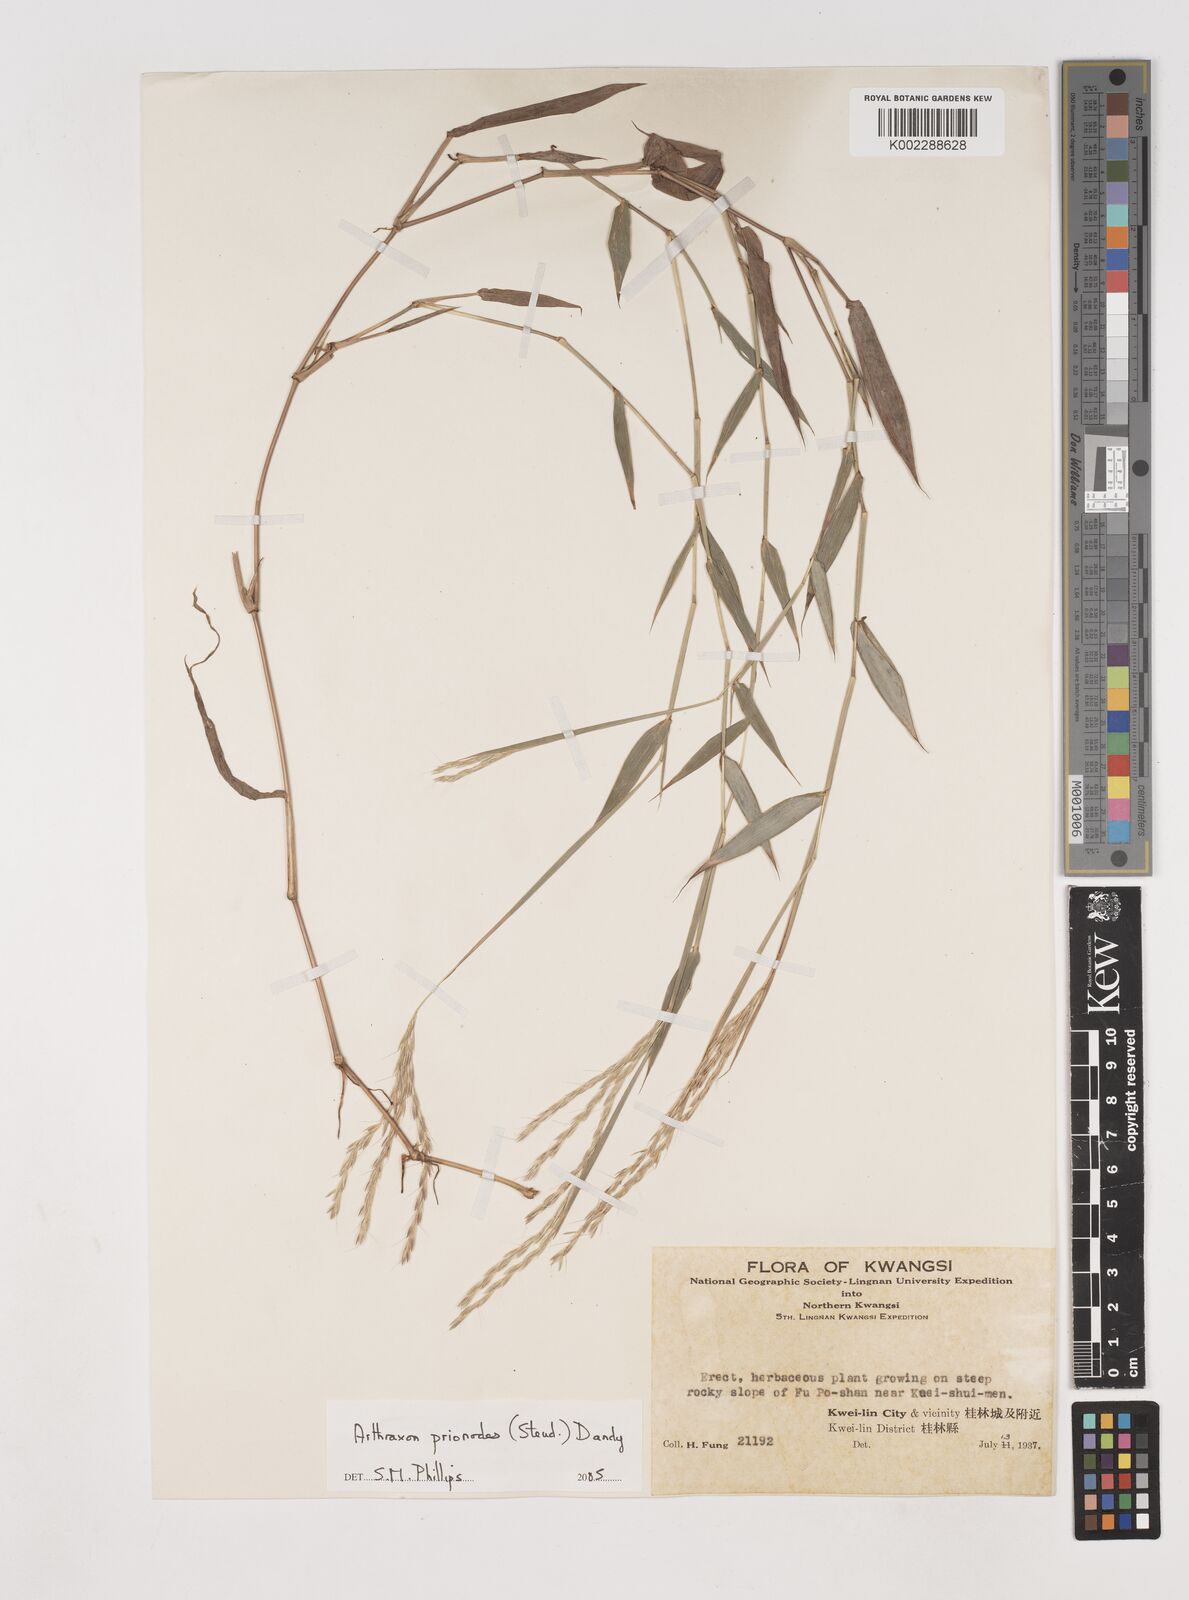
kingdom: Plantae
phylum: Tracheophyta
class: Liliopsida
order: Poales
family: Poaceae
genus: Arthraxon
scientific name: Arthraxon prionodes
